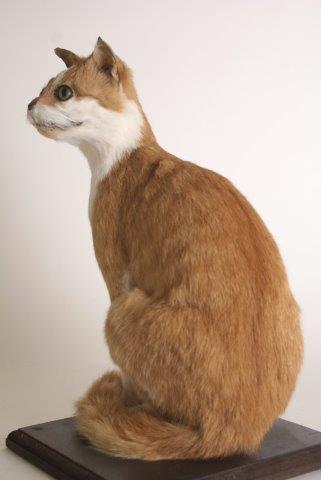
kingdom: Animalia
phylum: Chordata
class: Mammalia
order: Carnivora
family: Felidae
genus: Felis
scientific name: Felis catus
